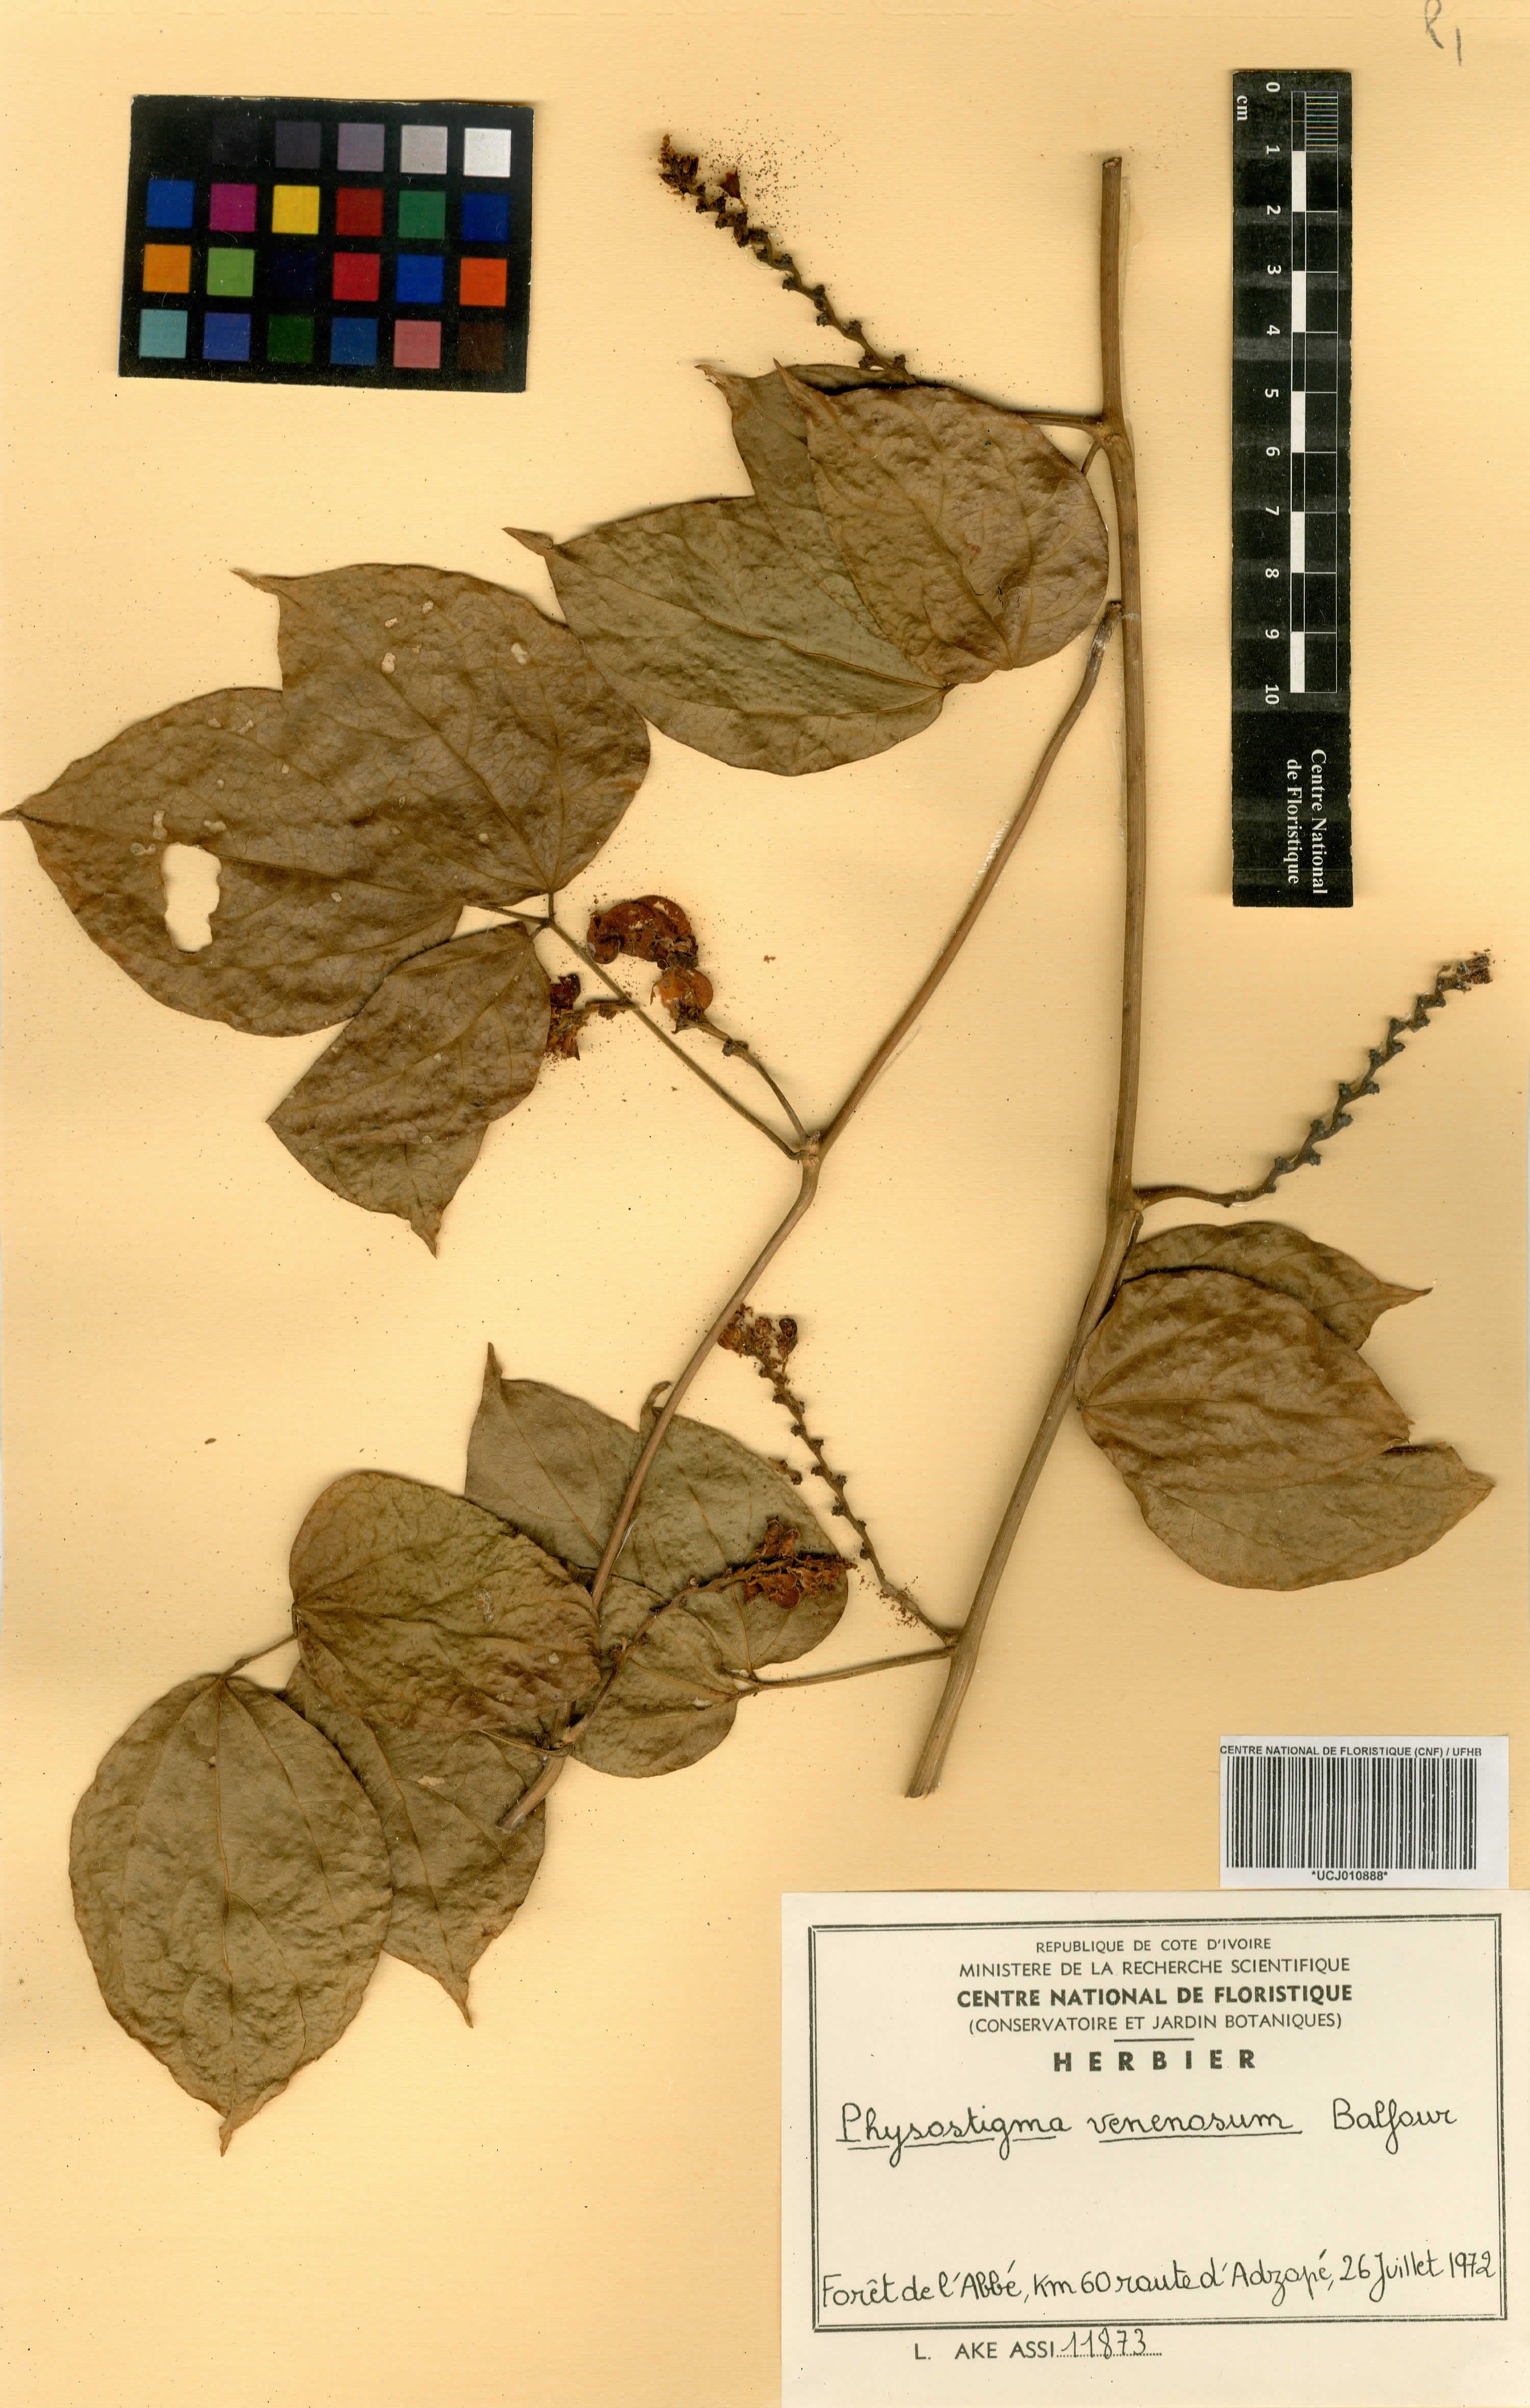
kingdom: Plantae
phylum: Tracheophyta
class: Magnoliopsida
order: Fabales
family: Fabaceae
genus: Physostigma
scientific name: Physostigma venenosum
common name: Calabar-bean
